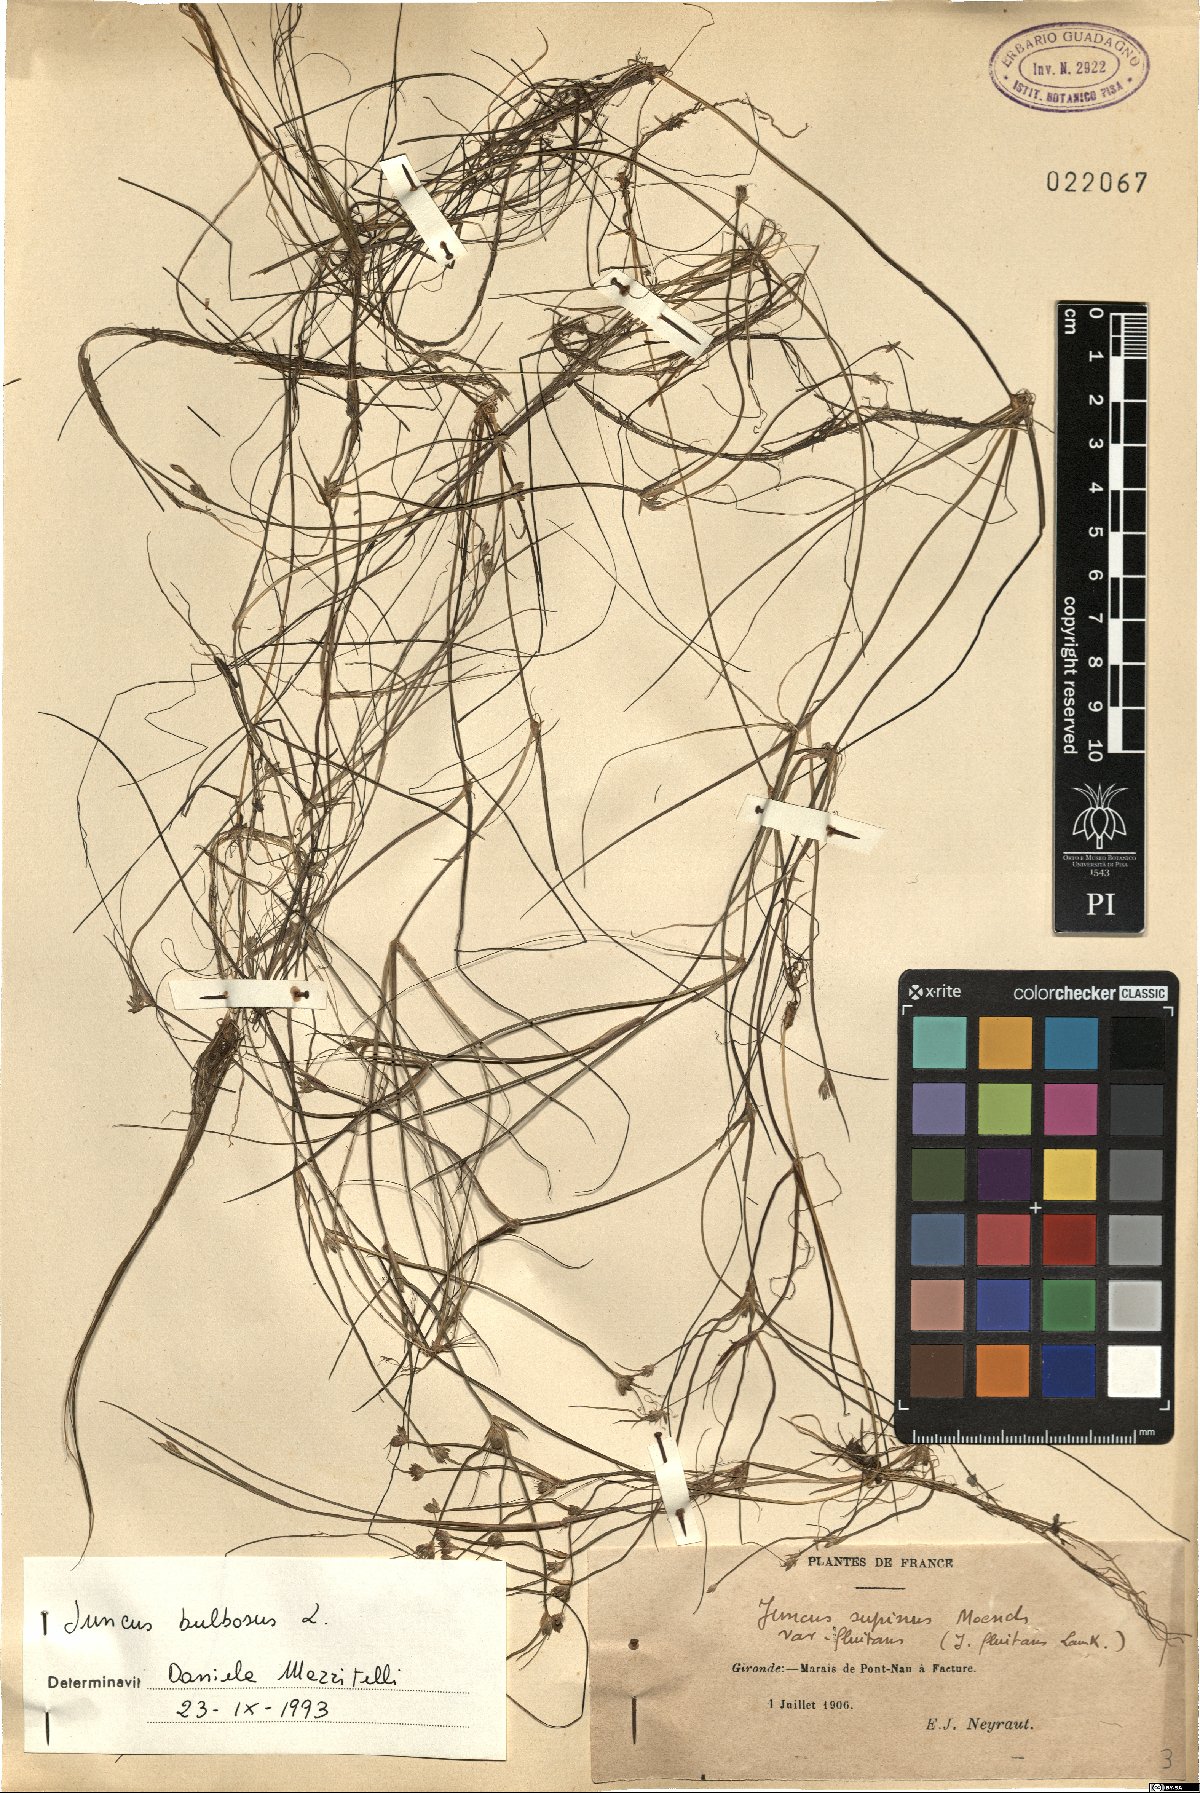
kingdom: Plantae
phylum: Tracheophyta
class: Liliopsida
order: Poales
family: Juncaceae
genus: Juncus
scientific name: Juncus bulbosus
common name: Bulbous rush
